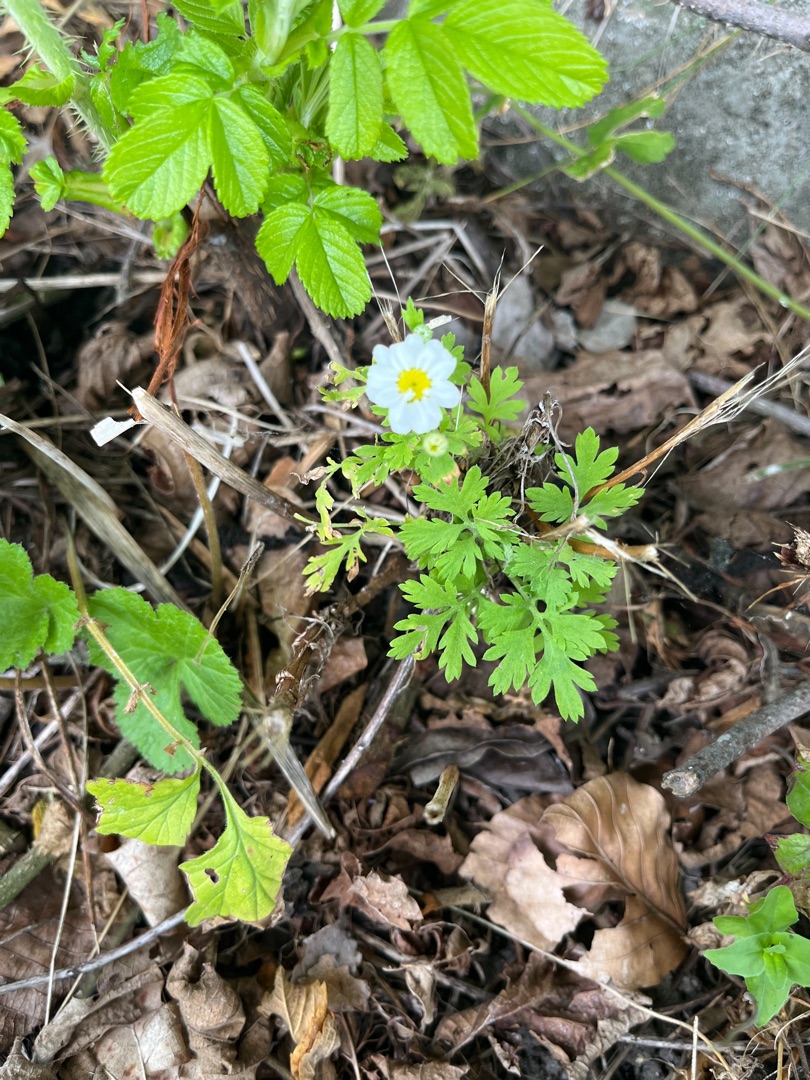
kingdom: Plantae
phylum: Tracheophyta
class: Magnoliopsida
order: Asterales
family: Asteraceae
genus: Tanacetum
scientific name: Tanacetum parthenium
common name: Matrem
